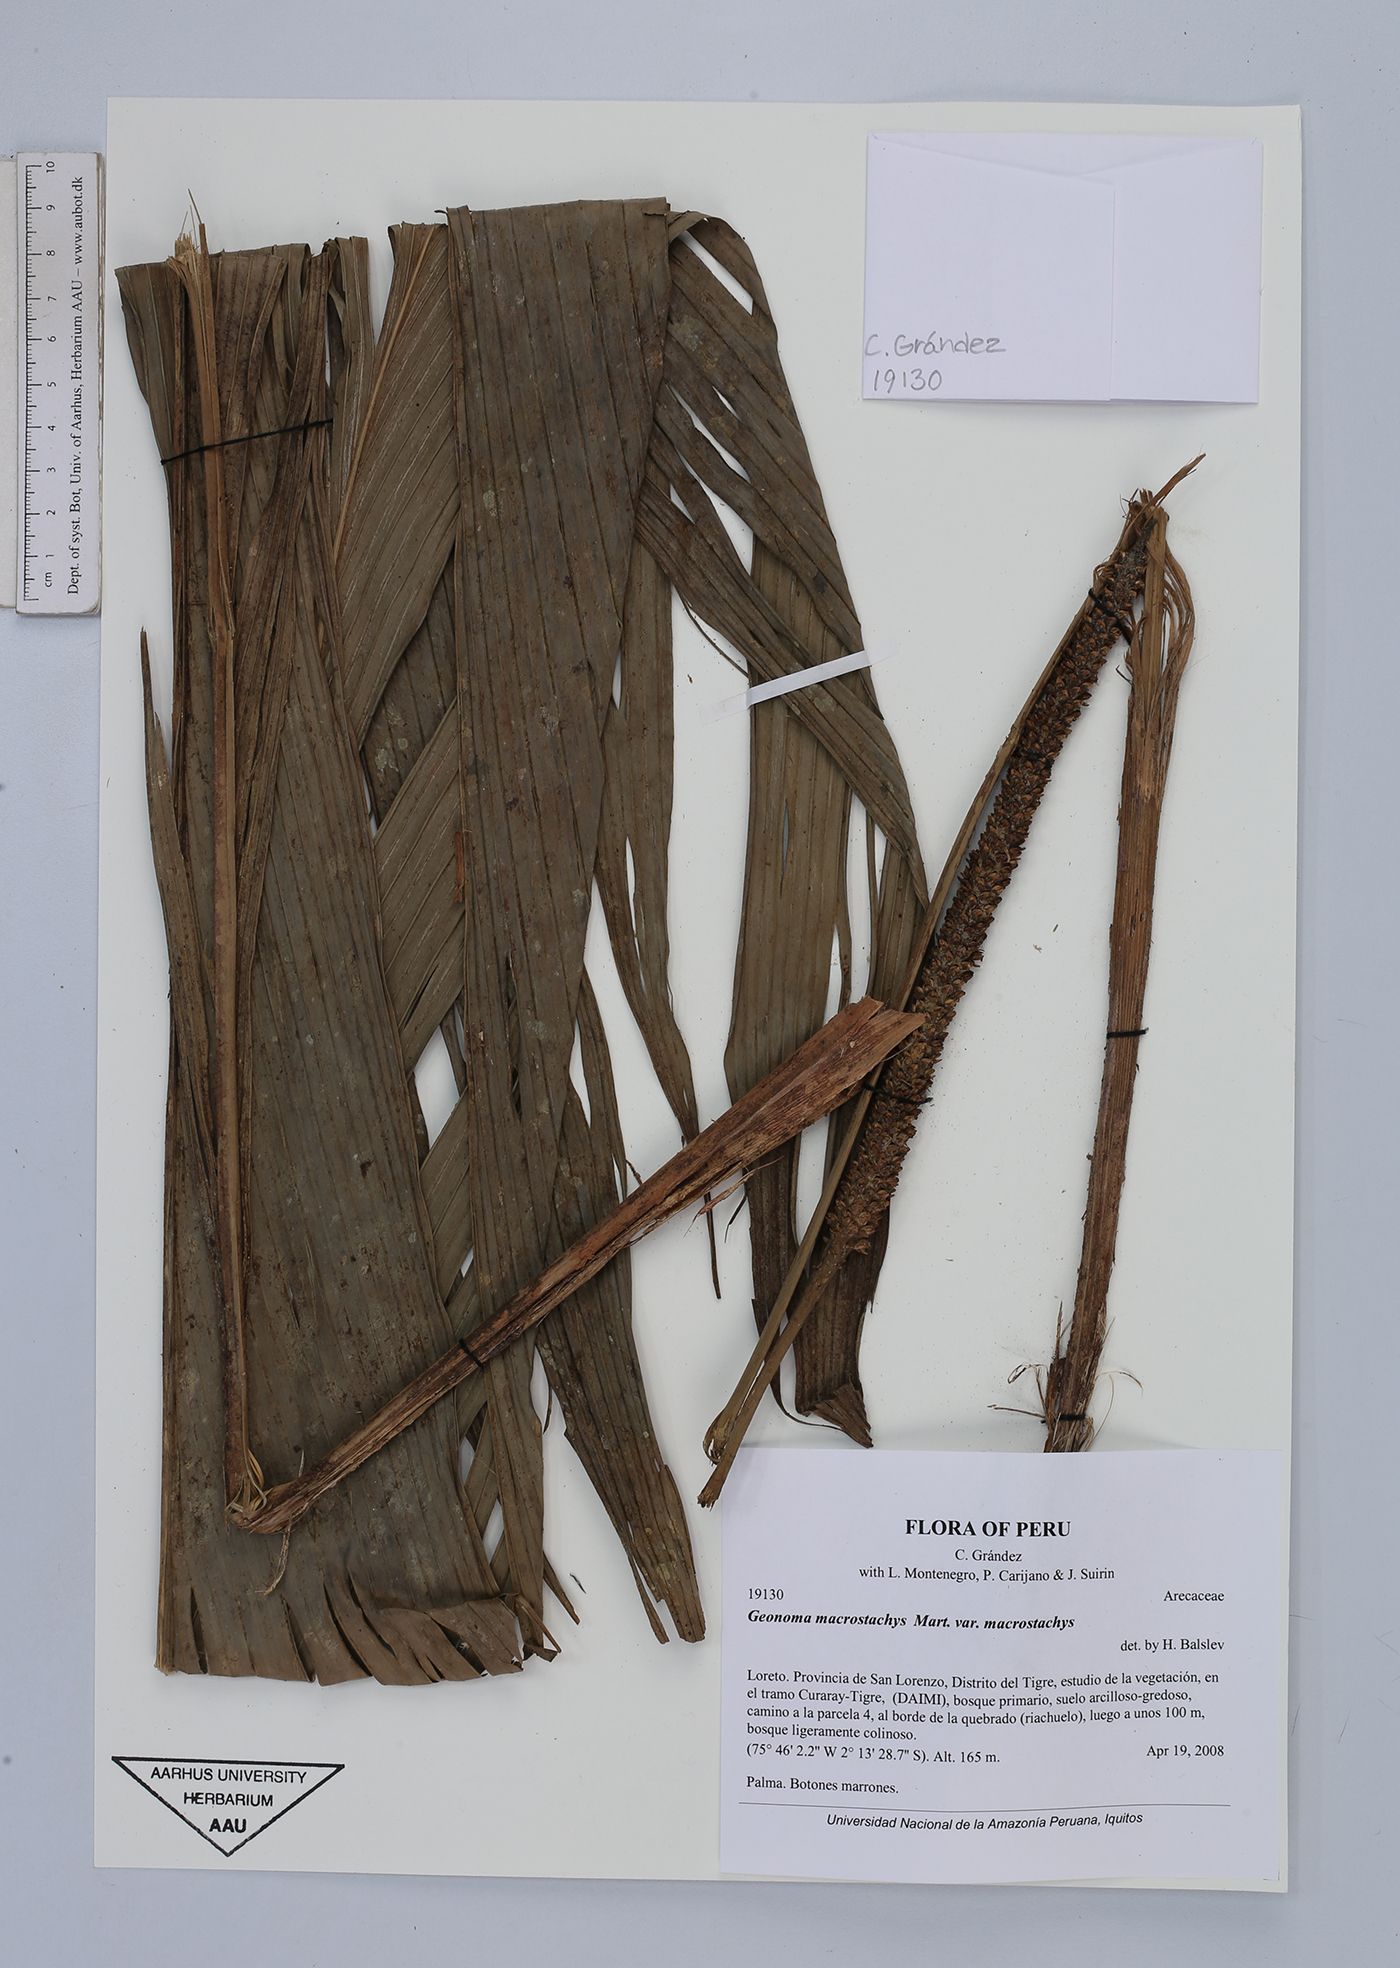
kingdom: Plantae
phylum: Tracheophyta
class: Liliopsida
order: Arecales
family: Arecaceae
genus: Geonoma
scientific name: Geonoma macrostachys
